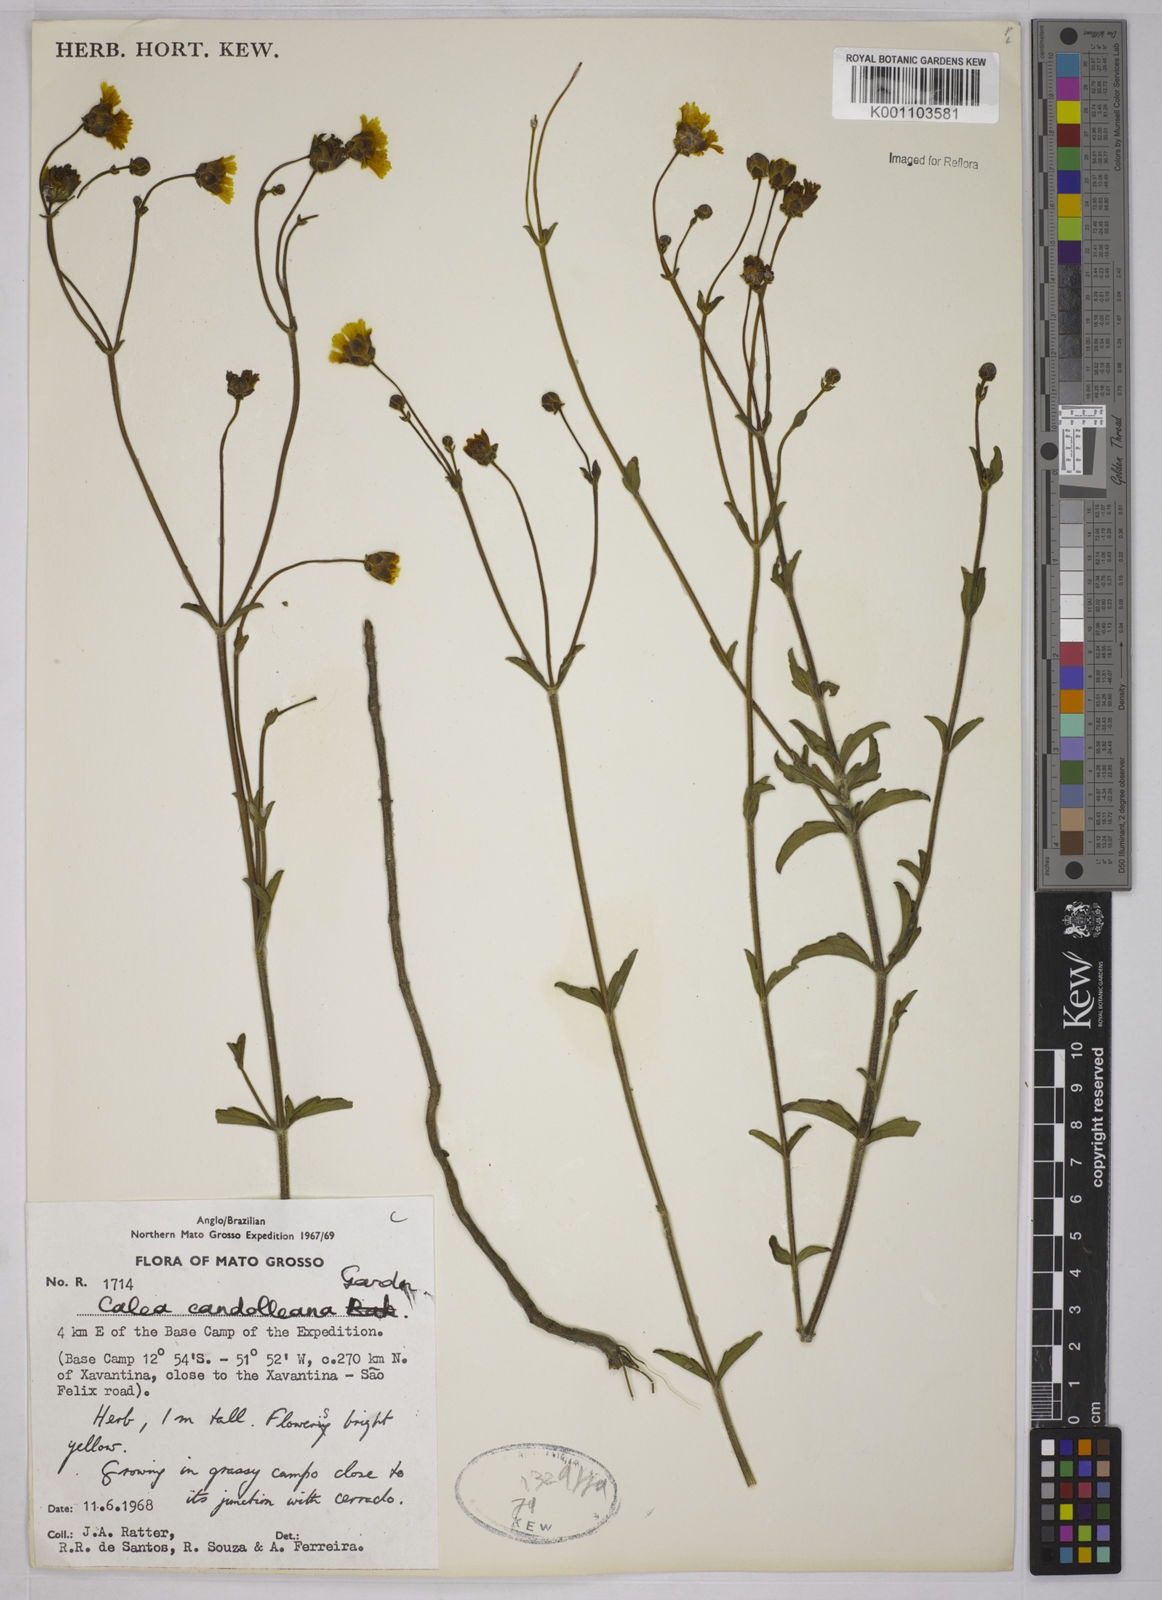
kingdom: Plantae
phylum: Tracheophyta
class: Magnoliopsida
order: Asterales
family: Asteraceae
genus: Calea
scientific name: Calea candolleana
